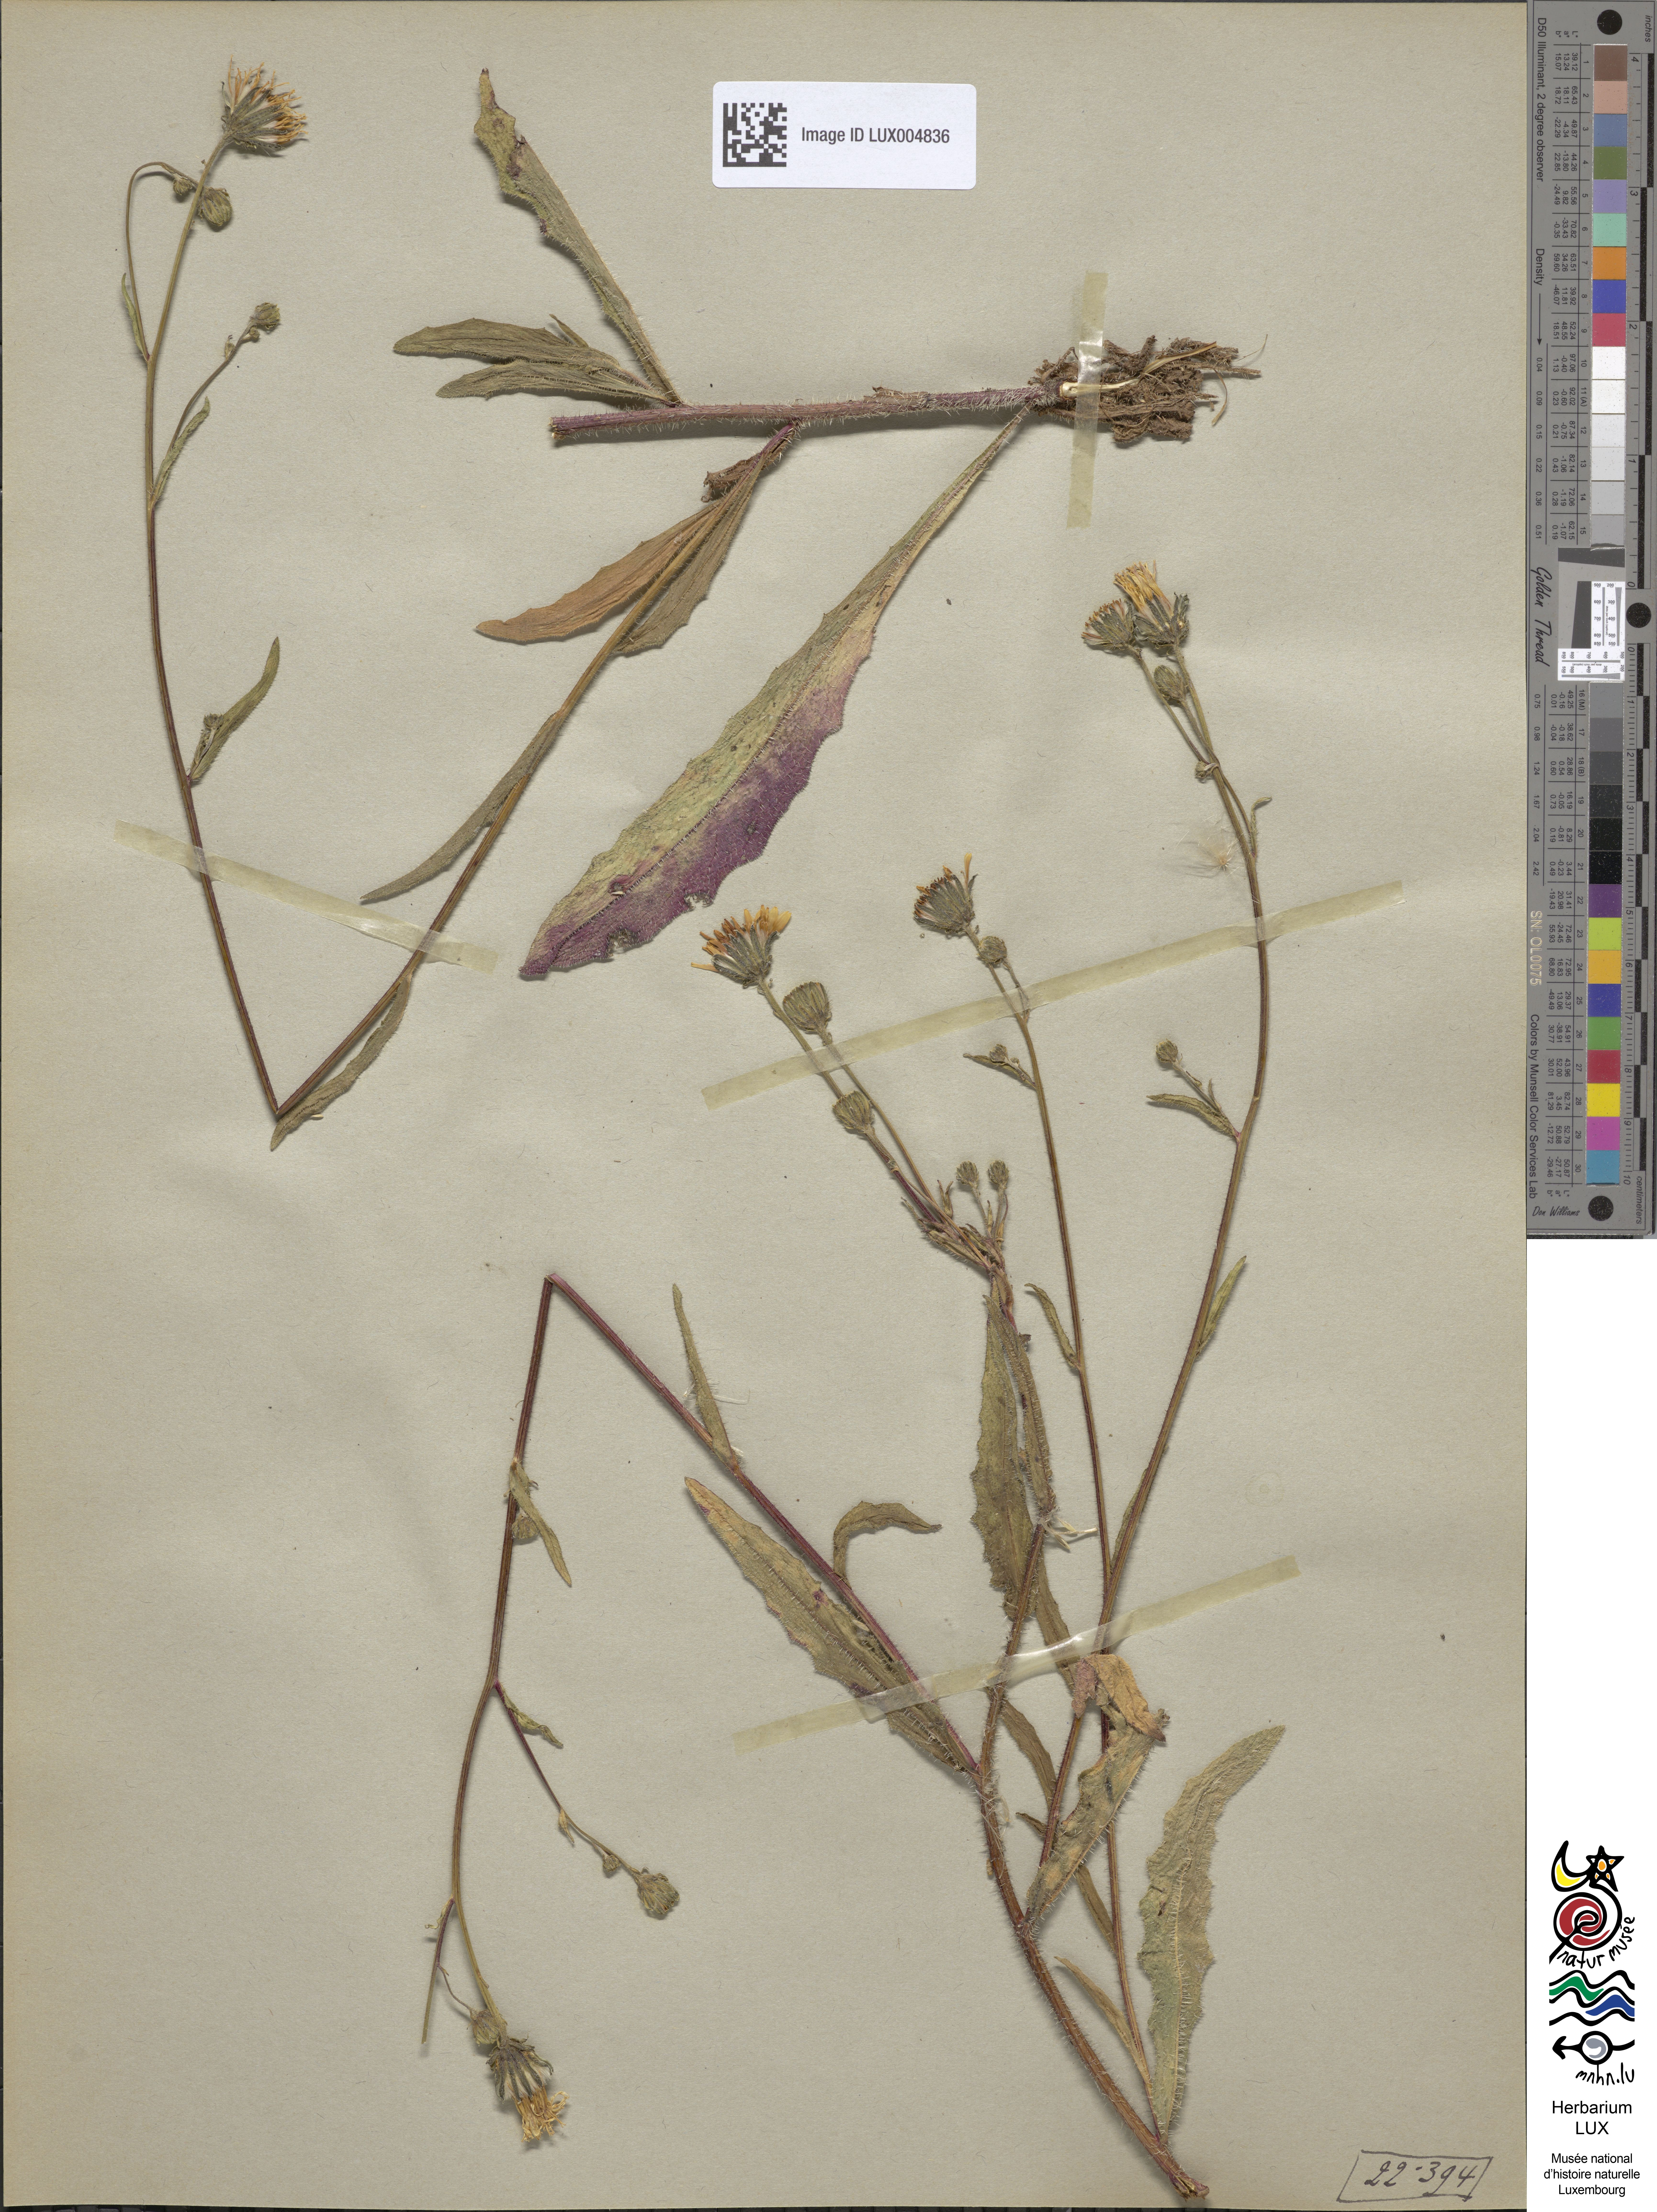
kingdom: Plantae
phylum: Tracheophyta
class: Magnoliopsida
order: Asterales
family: Asteraceae
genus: Picris
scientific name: Picris hieracioides
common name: Hawkweed oxtongue
